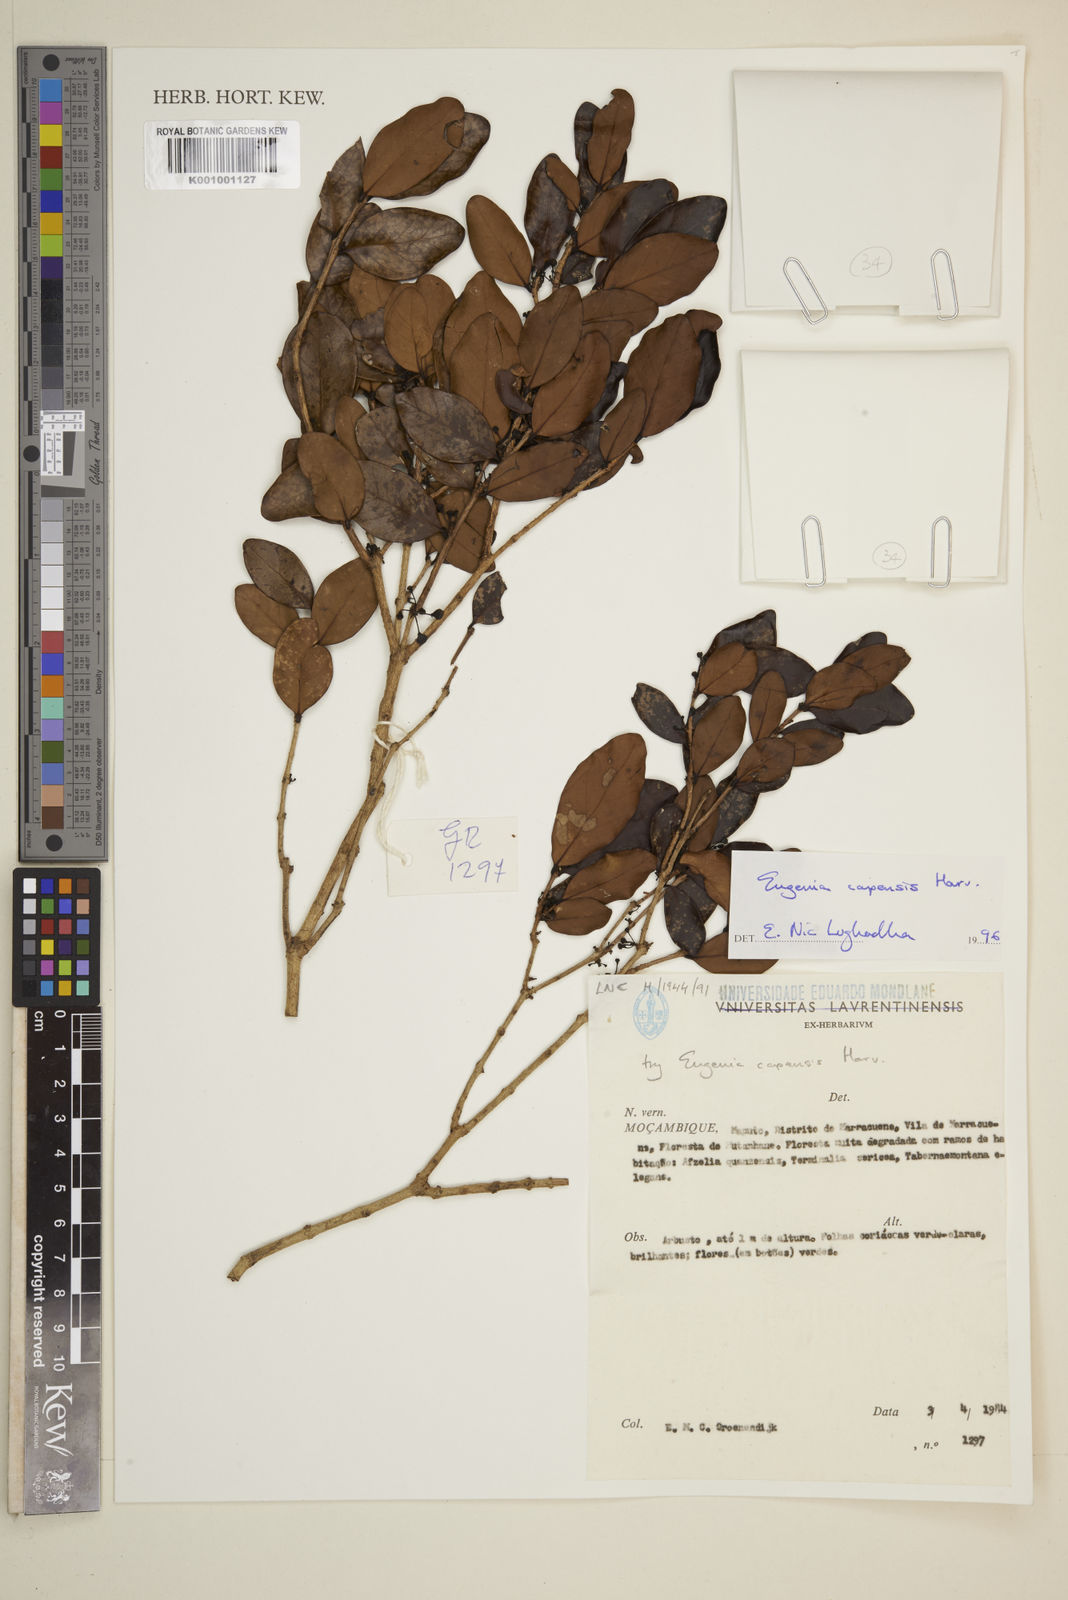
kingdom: Plantae
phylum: Tracheophyta
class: Magnoliopsida
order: Myrtales
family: Myrtaceae
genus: Eugenia
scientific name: Eugenia capensis
